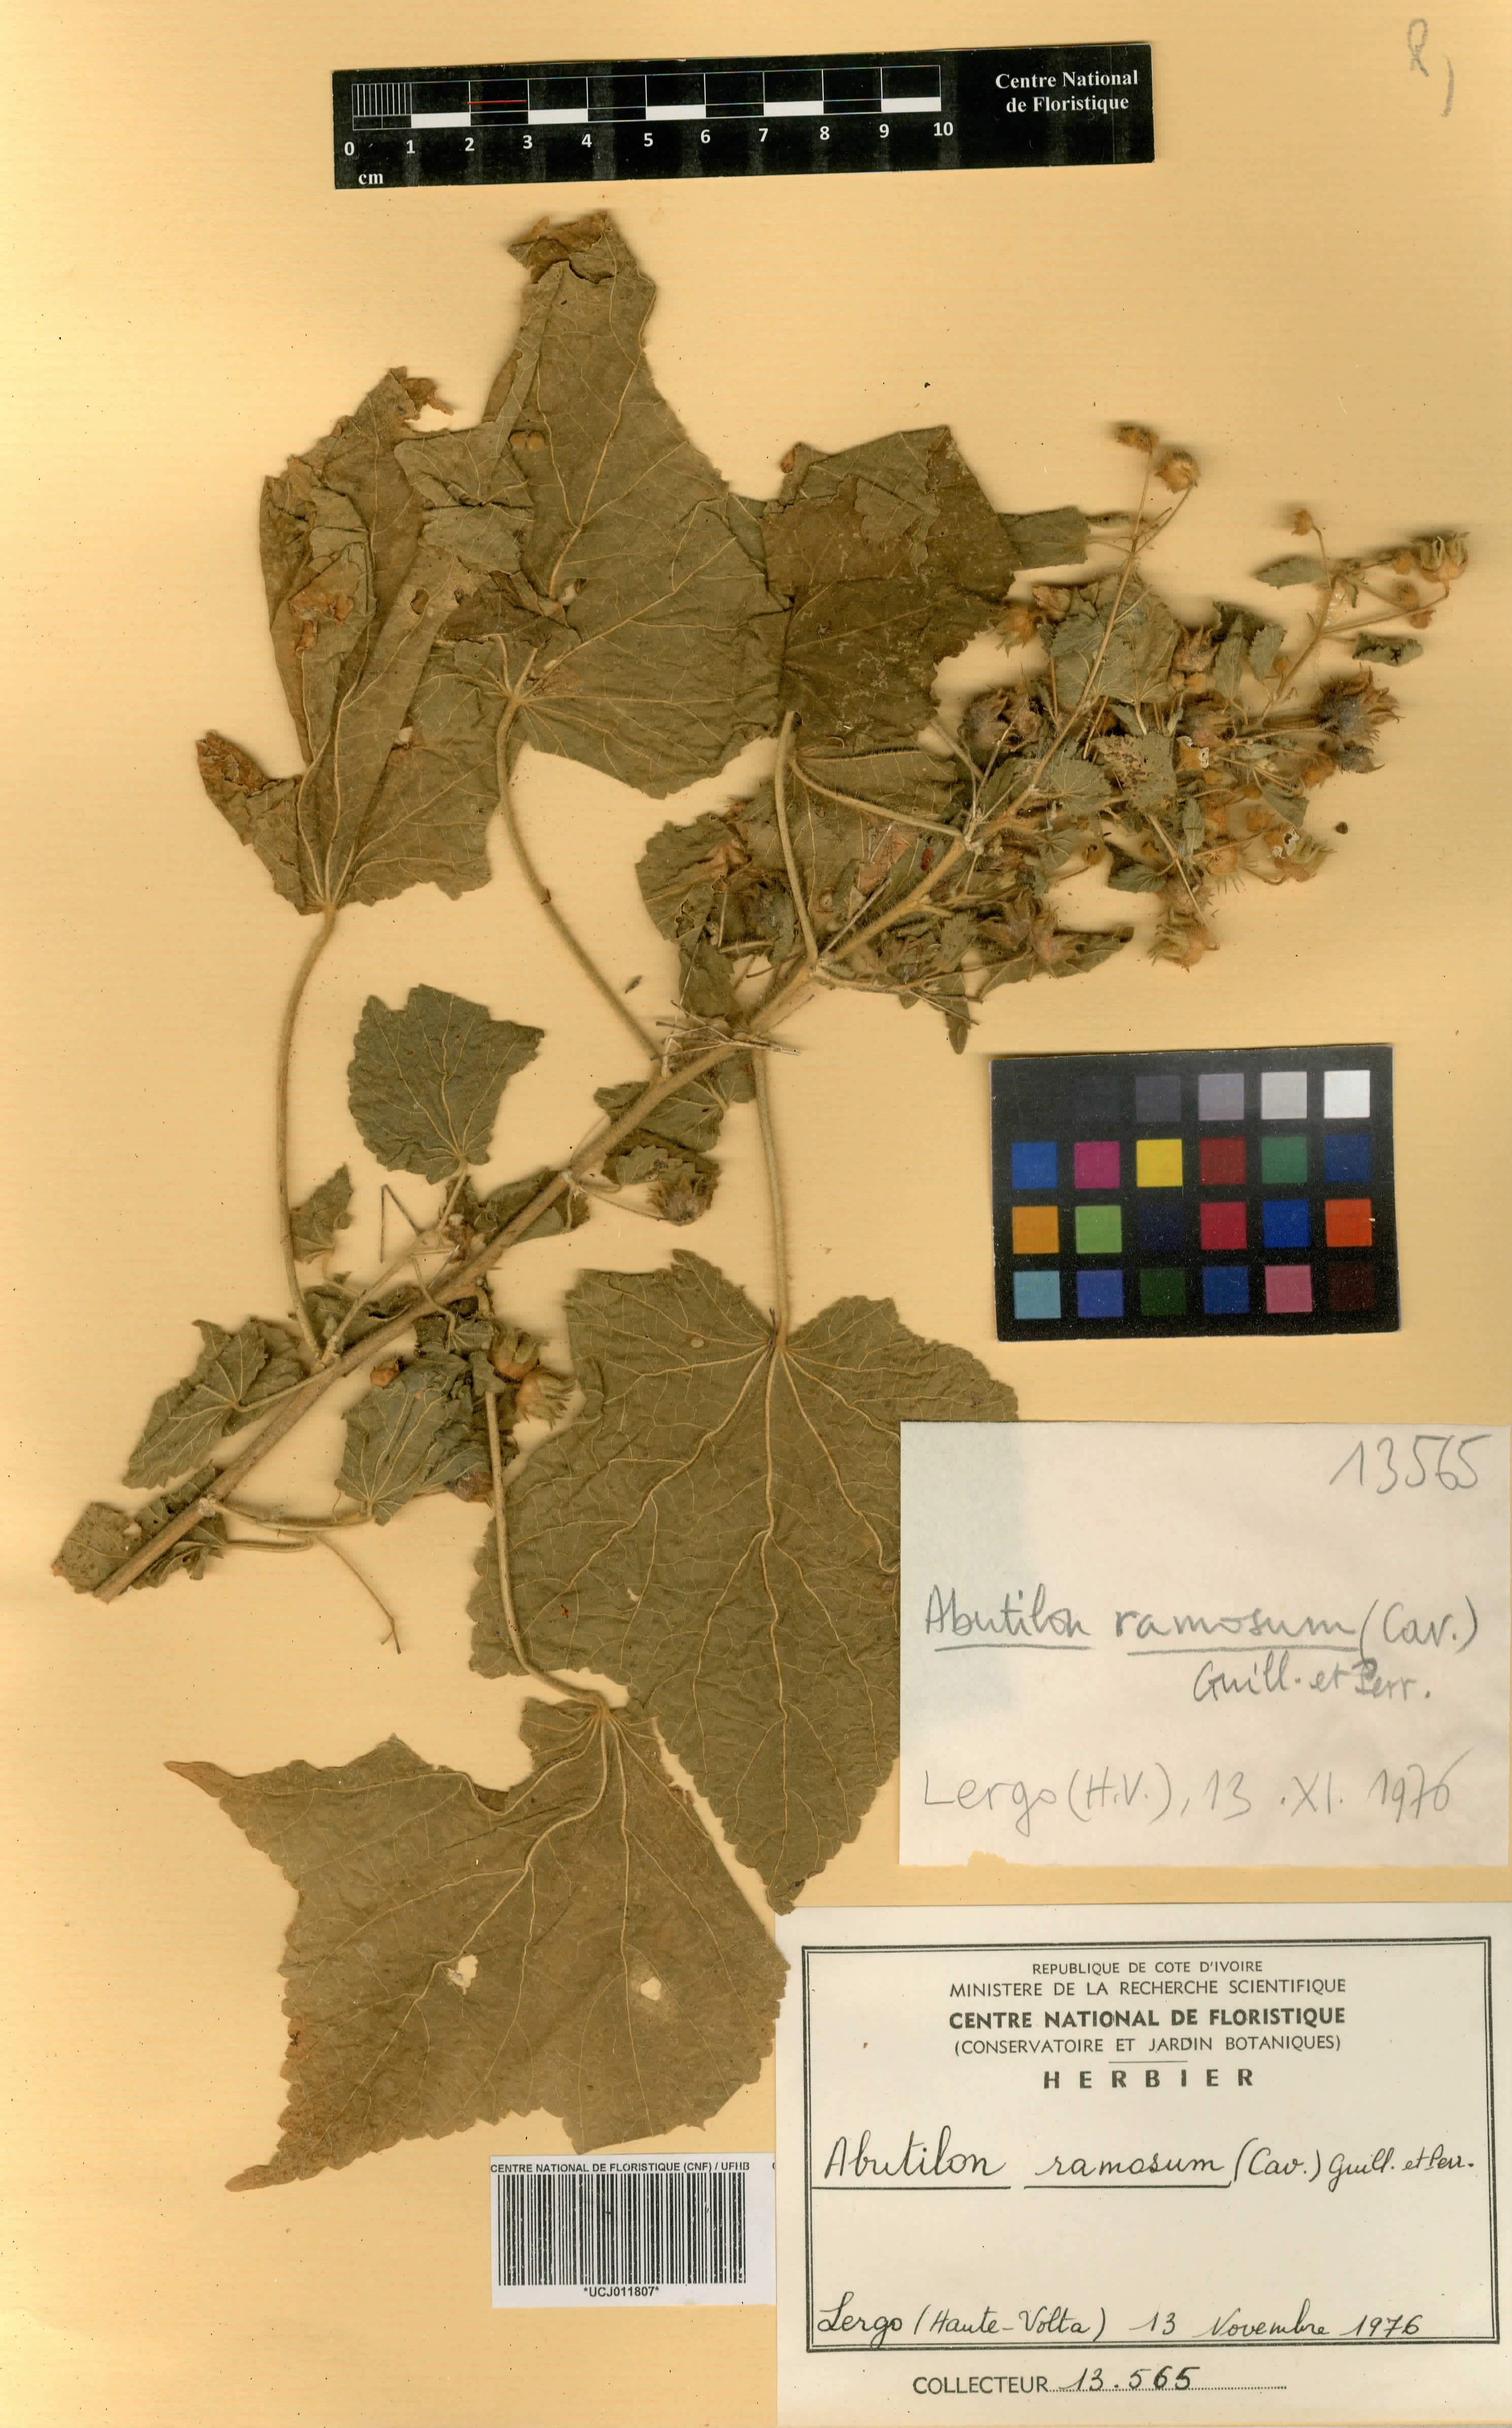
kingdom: Plantae
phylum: Tracheophyta
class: Magnoliopsida
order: Malvales
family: Malvaceae
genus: Abutilon
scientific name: Abutilon ramosum
